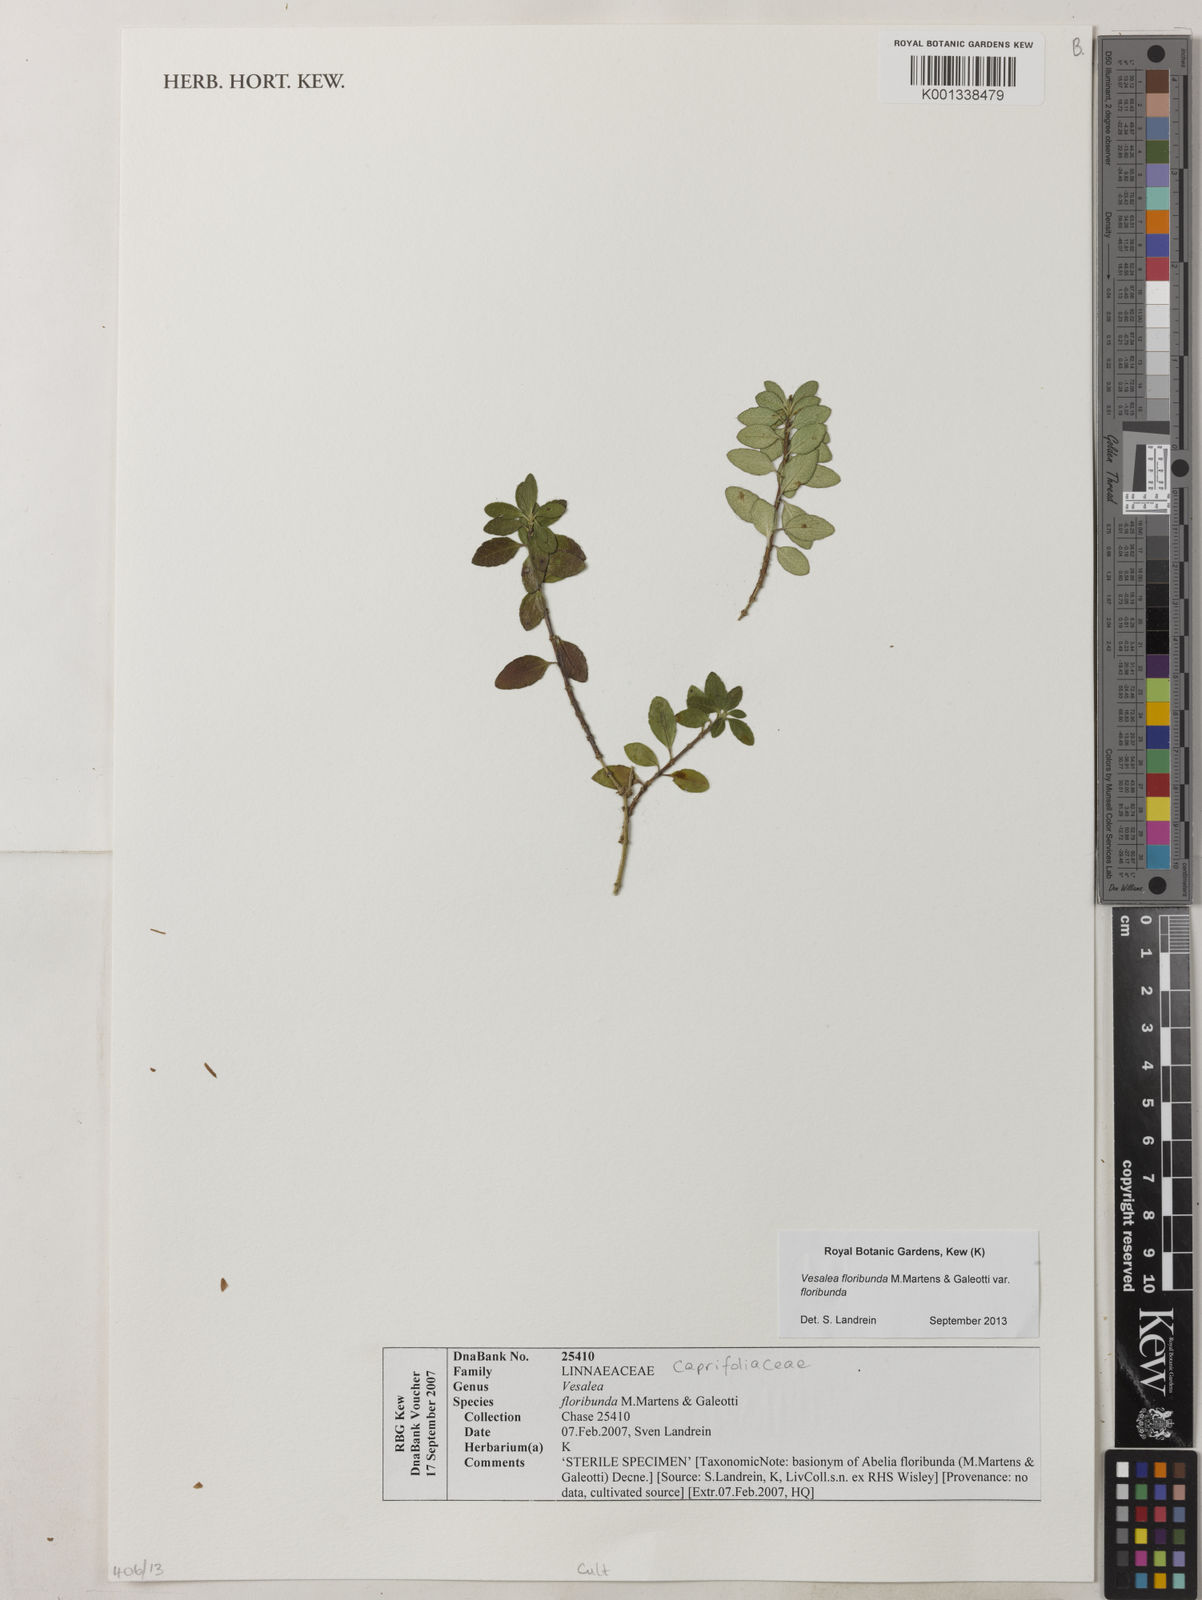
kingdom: Plantae
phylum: Tracheophyta
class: Magnoliopsida
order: Dipsacales
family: Caprifoliaceae
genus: Vesalea
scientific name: Vesalea floribunda
